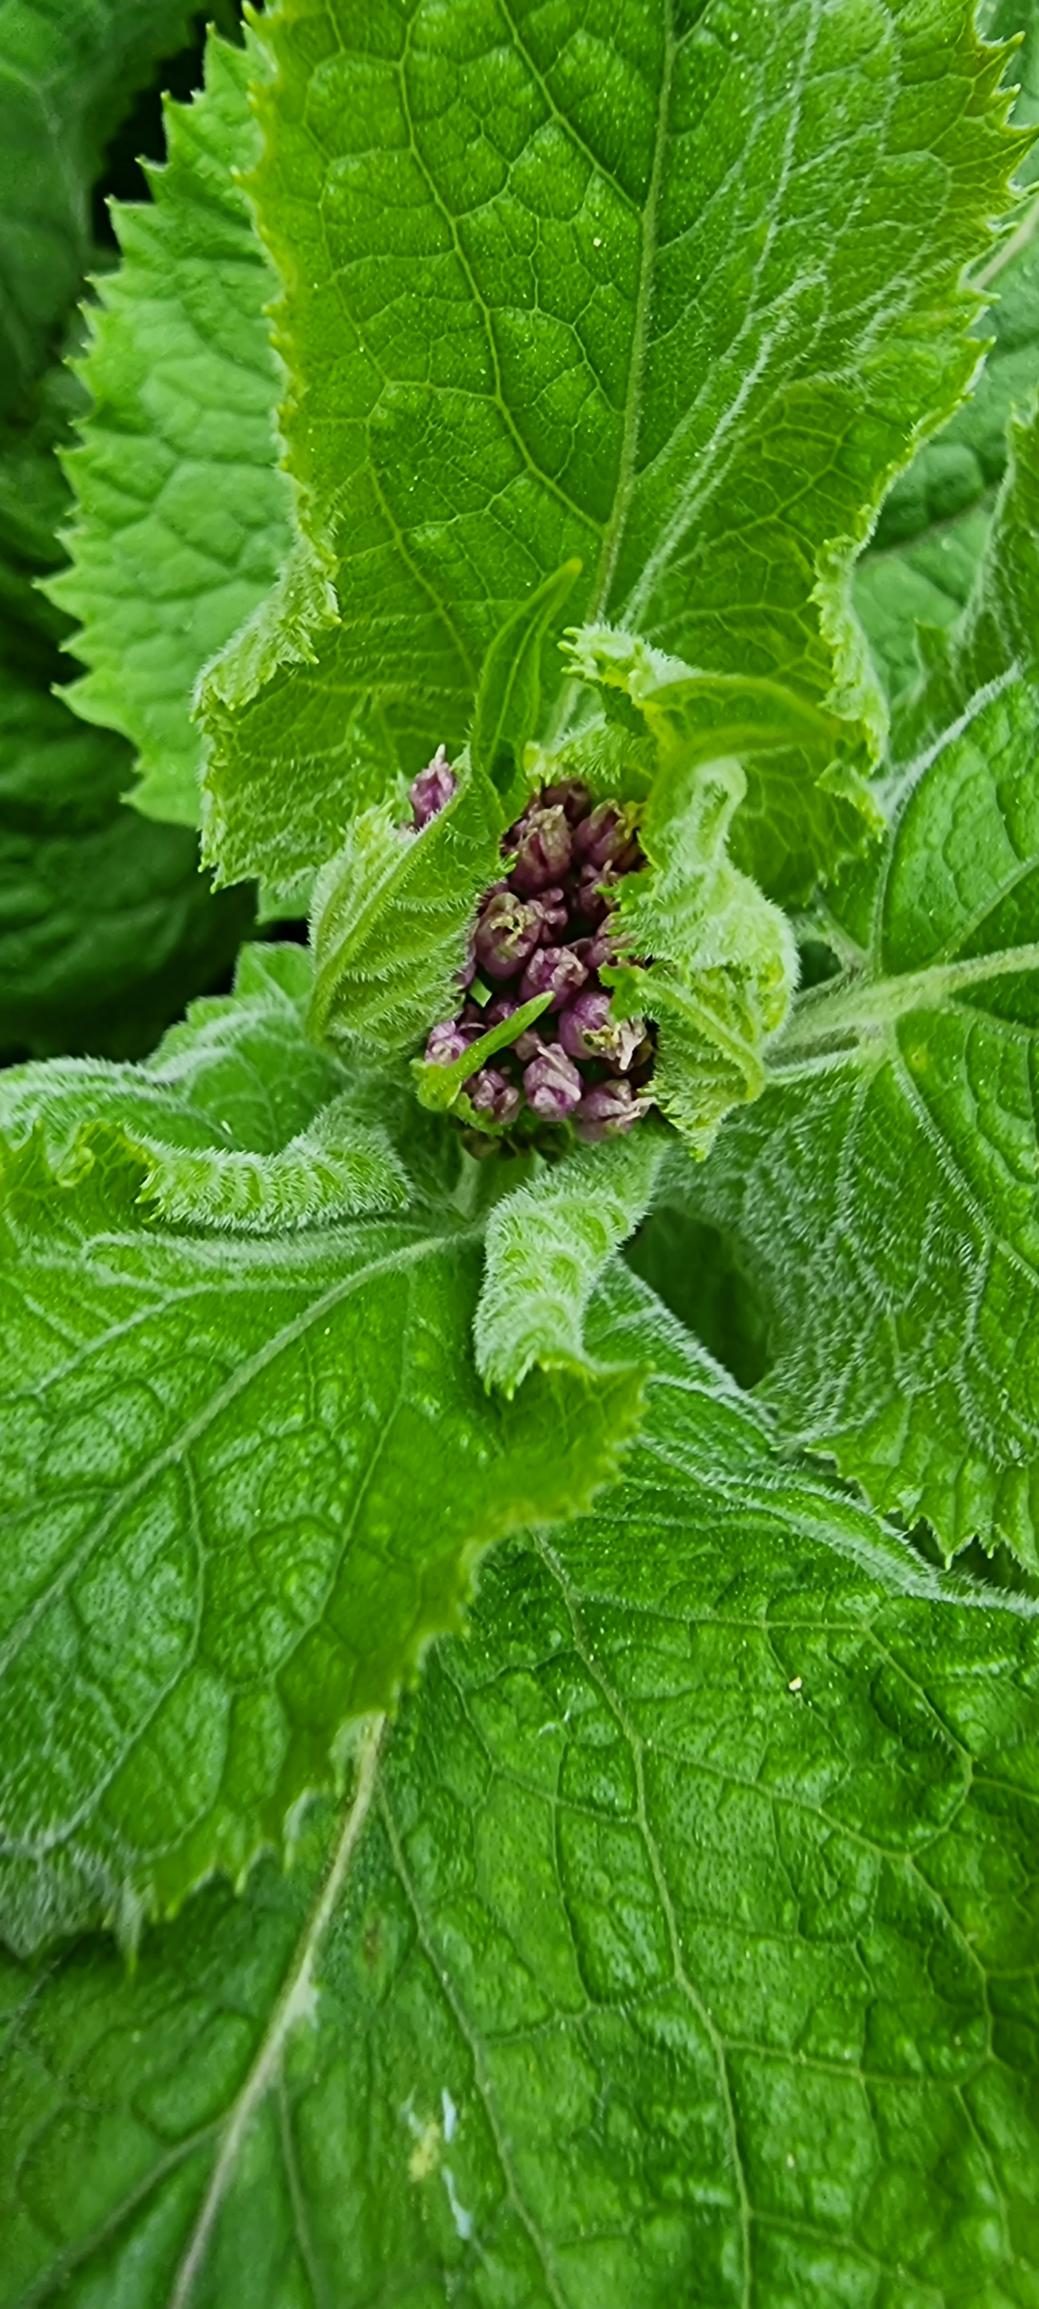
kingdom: Plantae
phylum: Tracheophyta
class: Magnoliopsida
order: Brassicales
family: Brassicaceae
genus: Lunaria
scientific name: Lunaria rediviva
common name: Vedvarende måneskulpe
